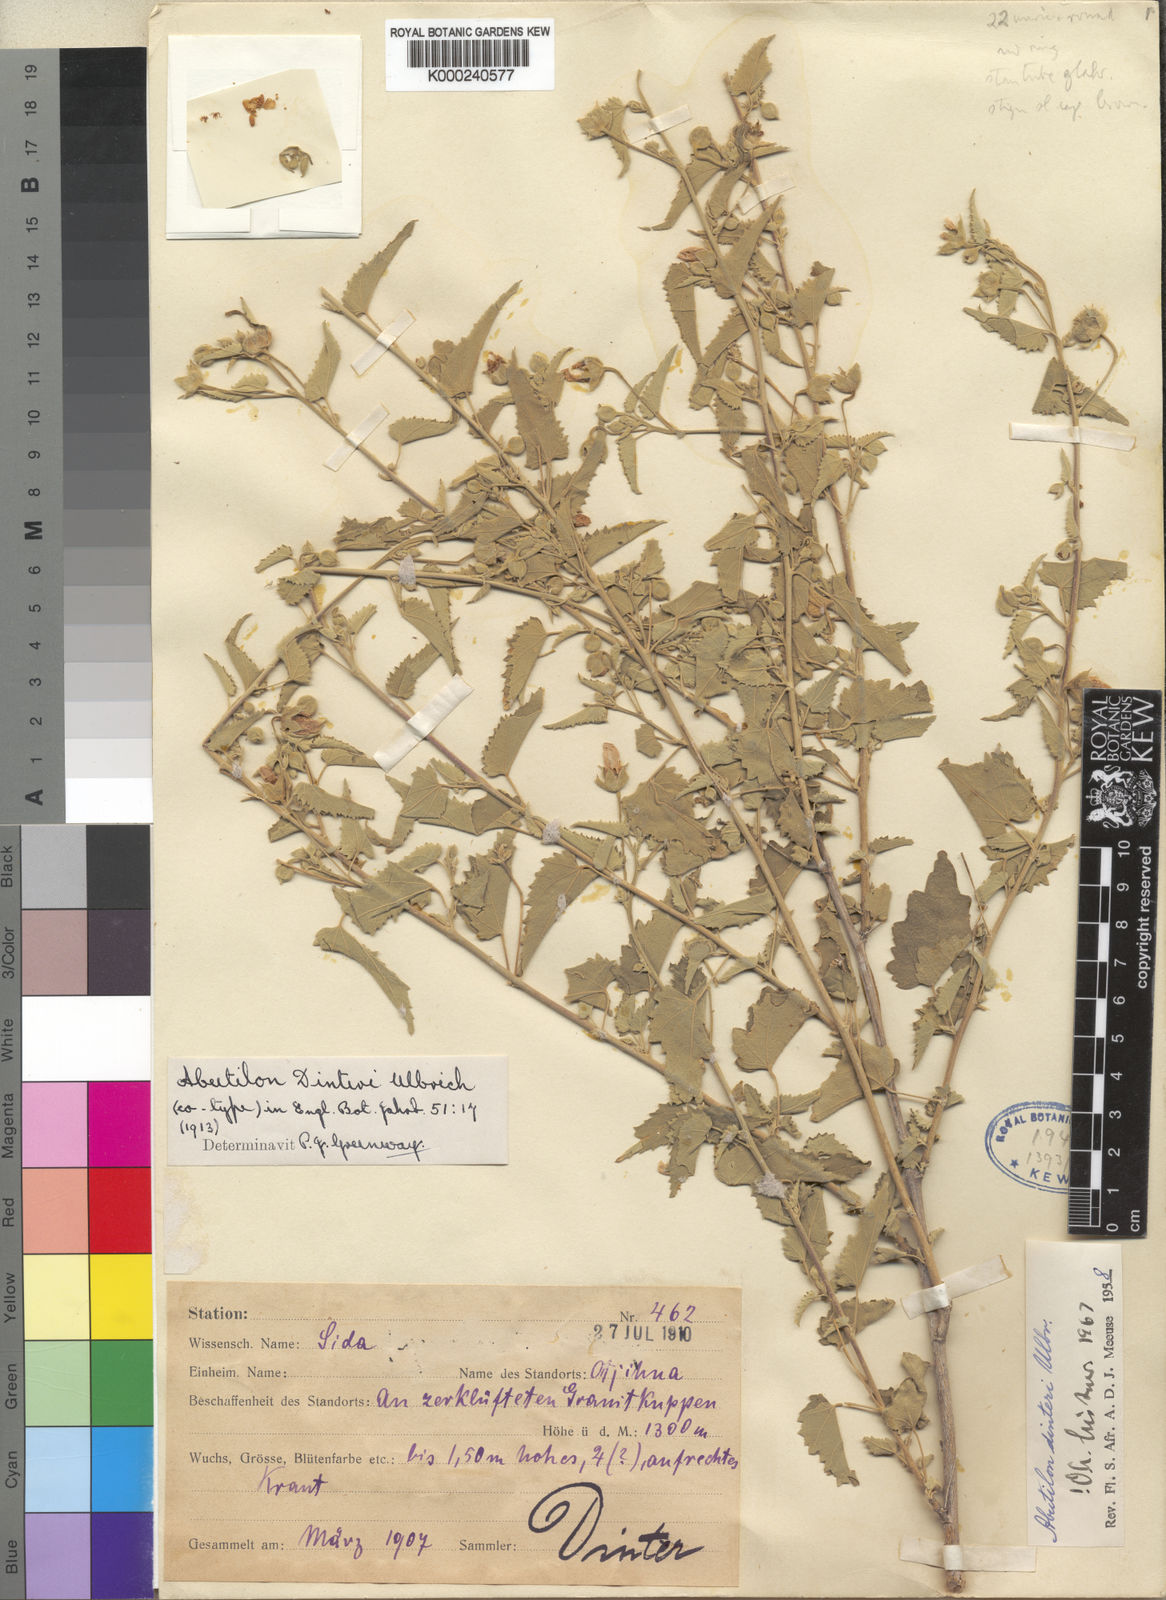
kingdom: Plantae
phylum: Tracheophyta
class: Magnoliopsida
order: Malvales
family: Malvaceae
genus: Abutilon
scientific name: Abutilon dinteri
